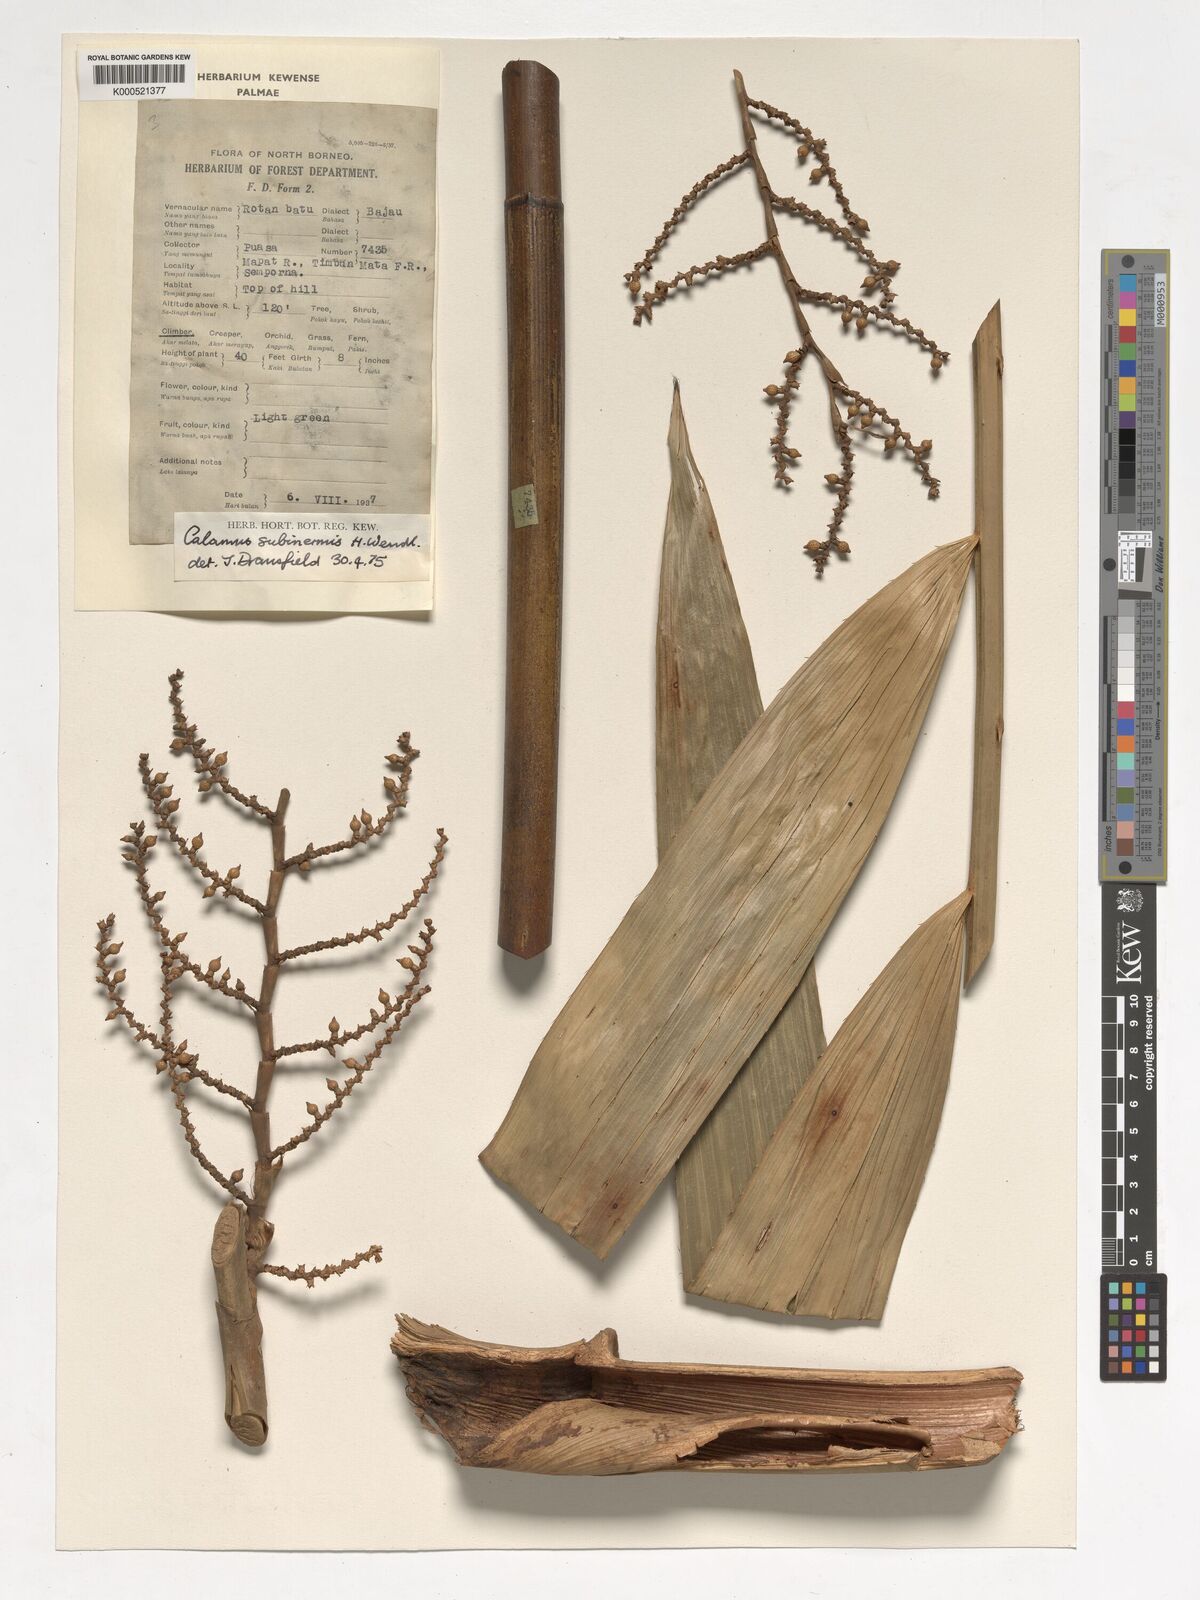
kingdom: Plantae
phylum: Tracheophyta
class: Liliopsida
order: Arecales
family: Arecaceae
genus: Calamus
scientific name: Calamus moseleyanus
